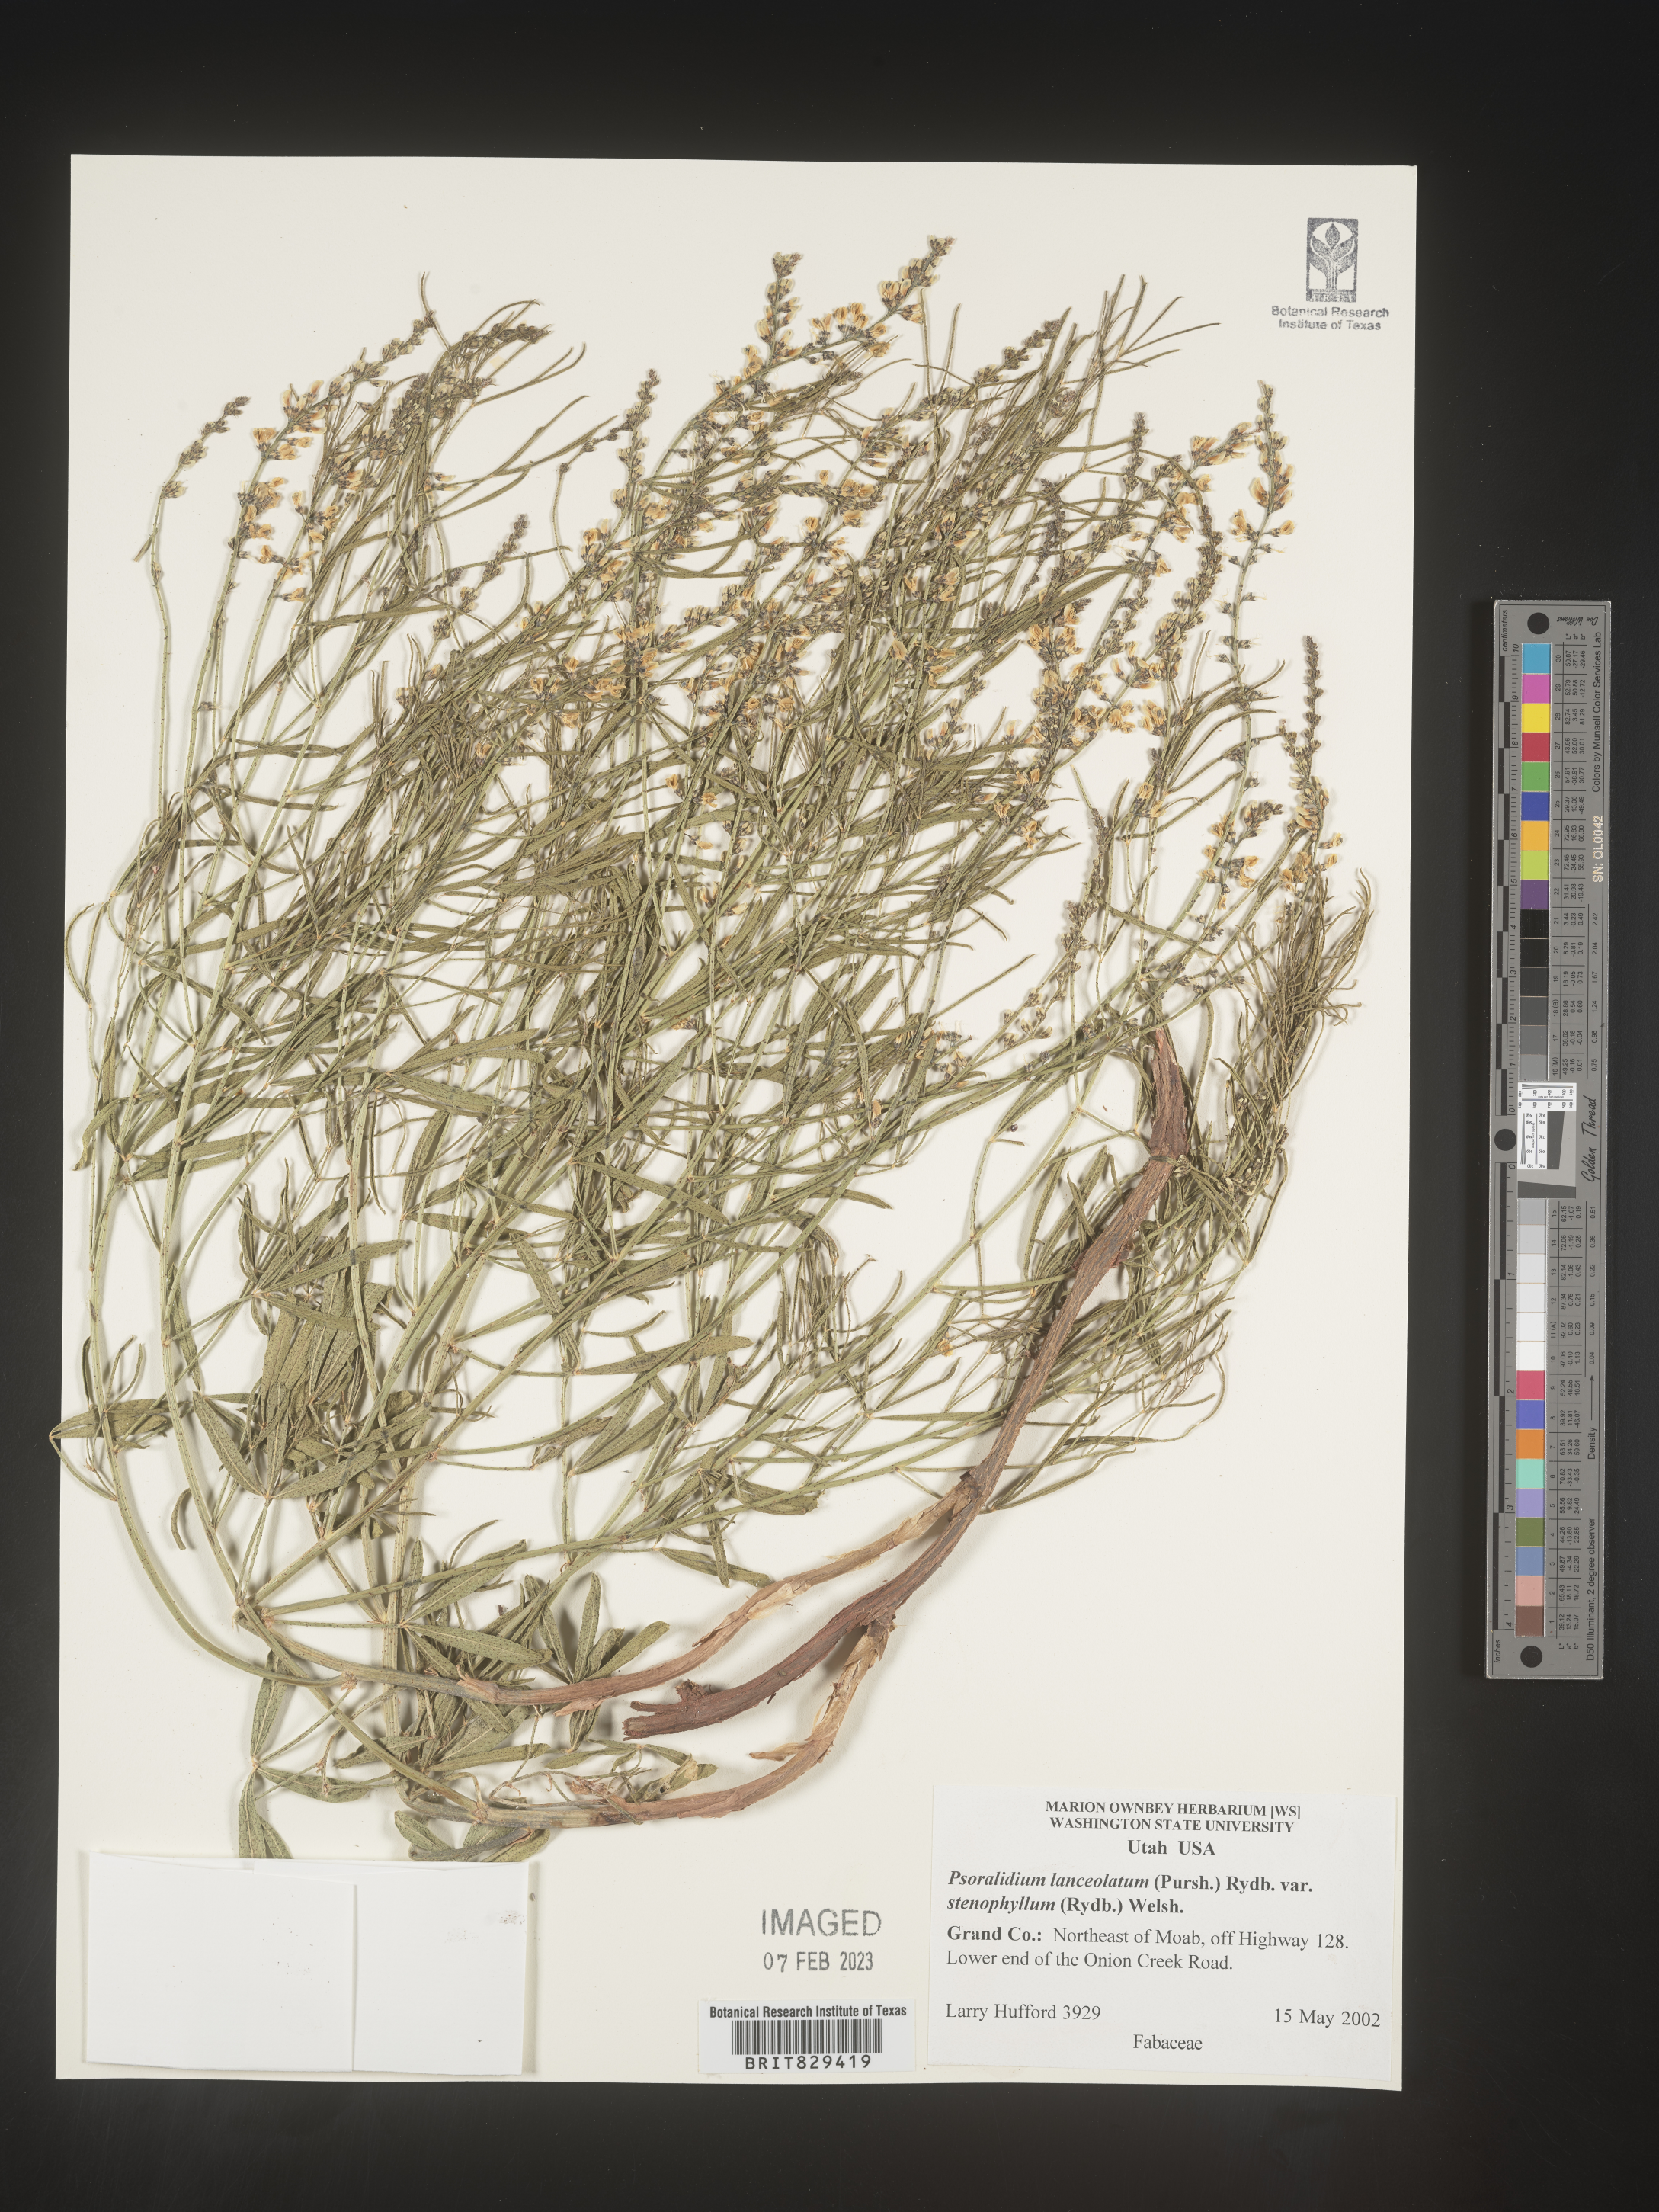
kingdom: Plantae
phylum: Tracheophyta
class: Magnoliopsida
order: Fabales
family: Fabaceae
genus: Psoralea
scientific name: Psoralea
